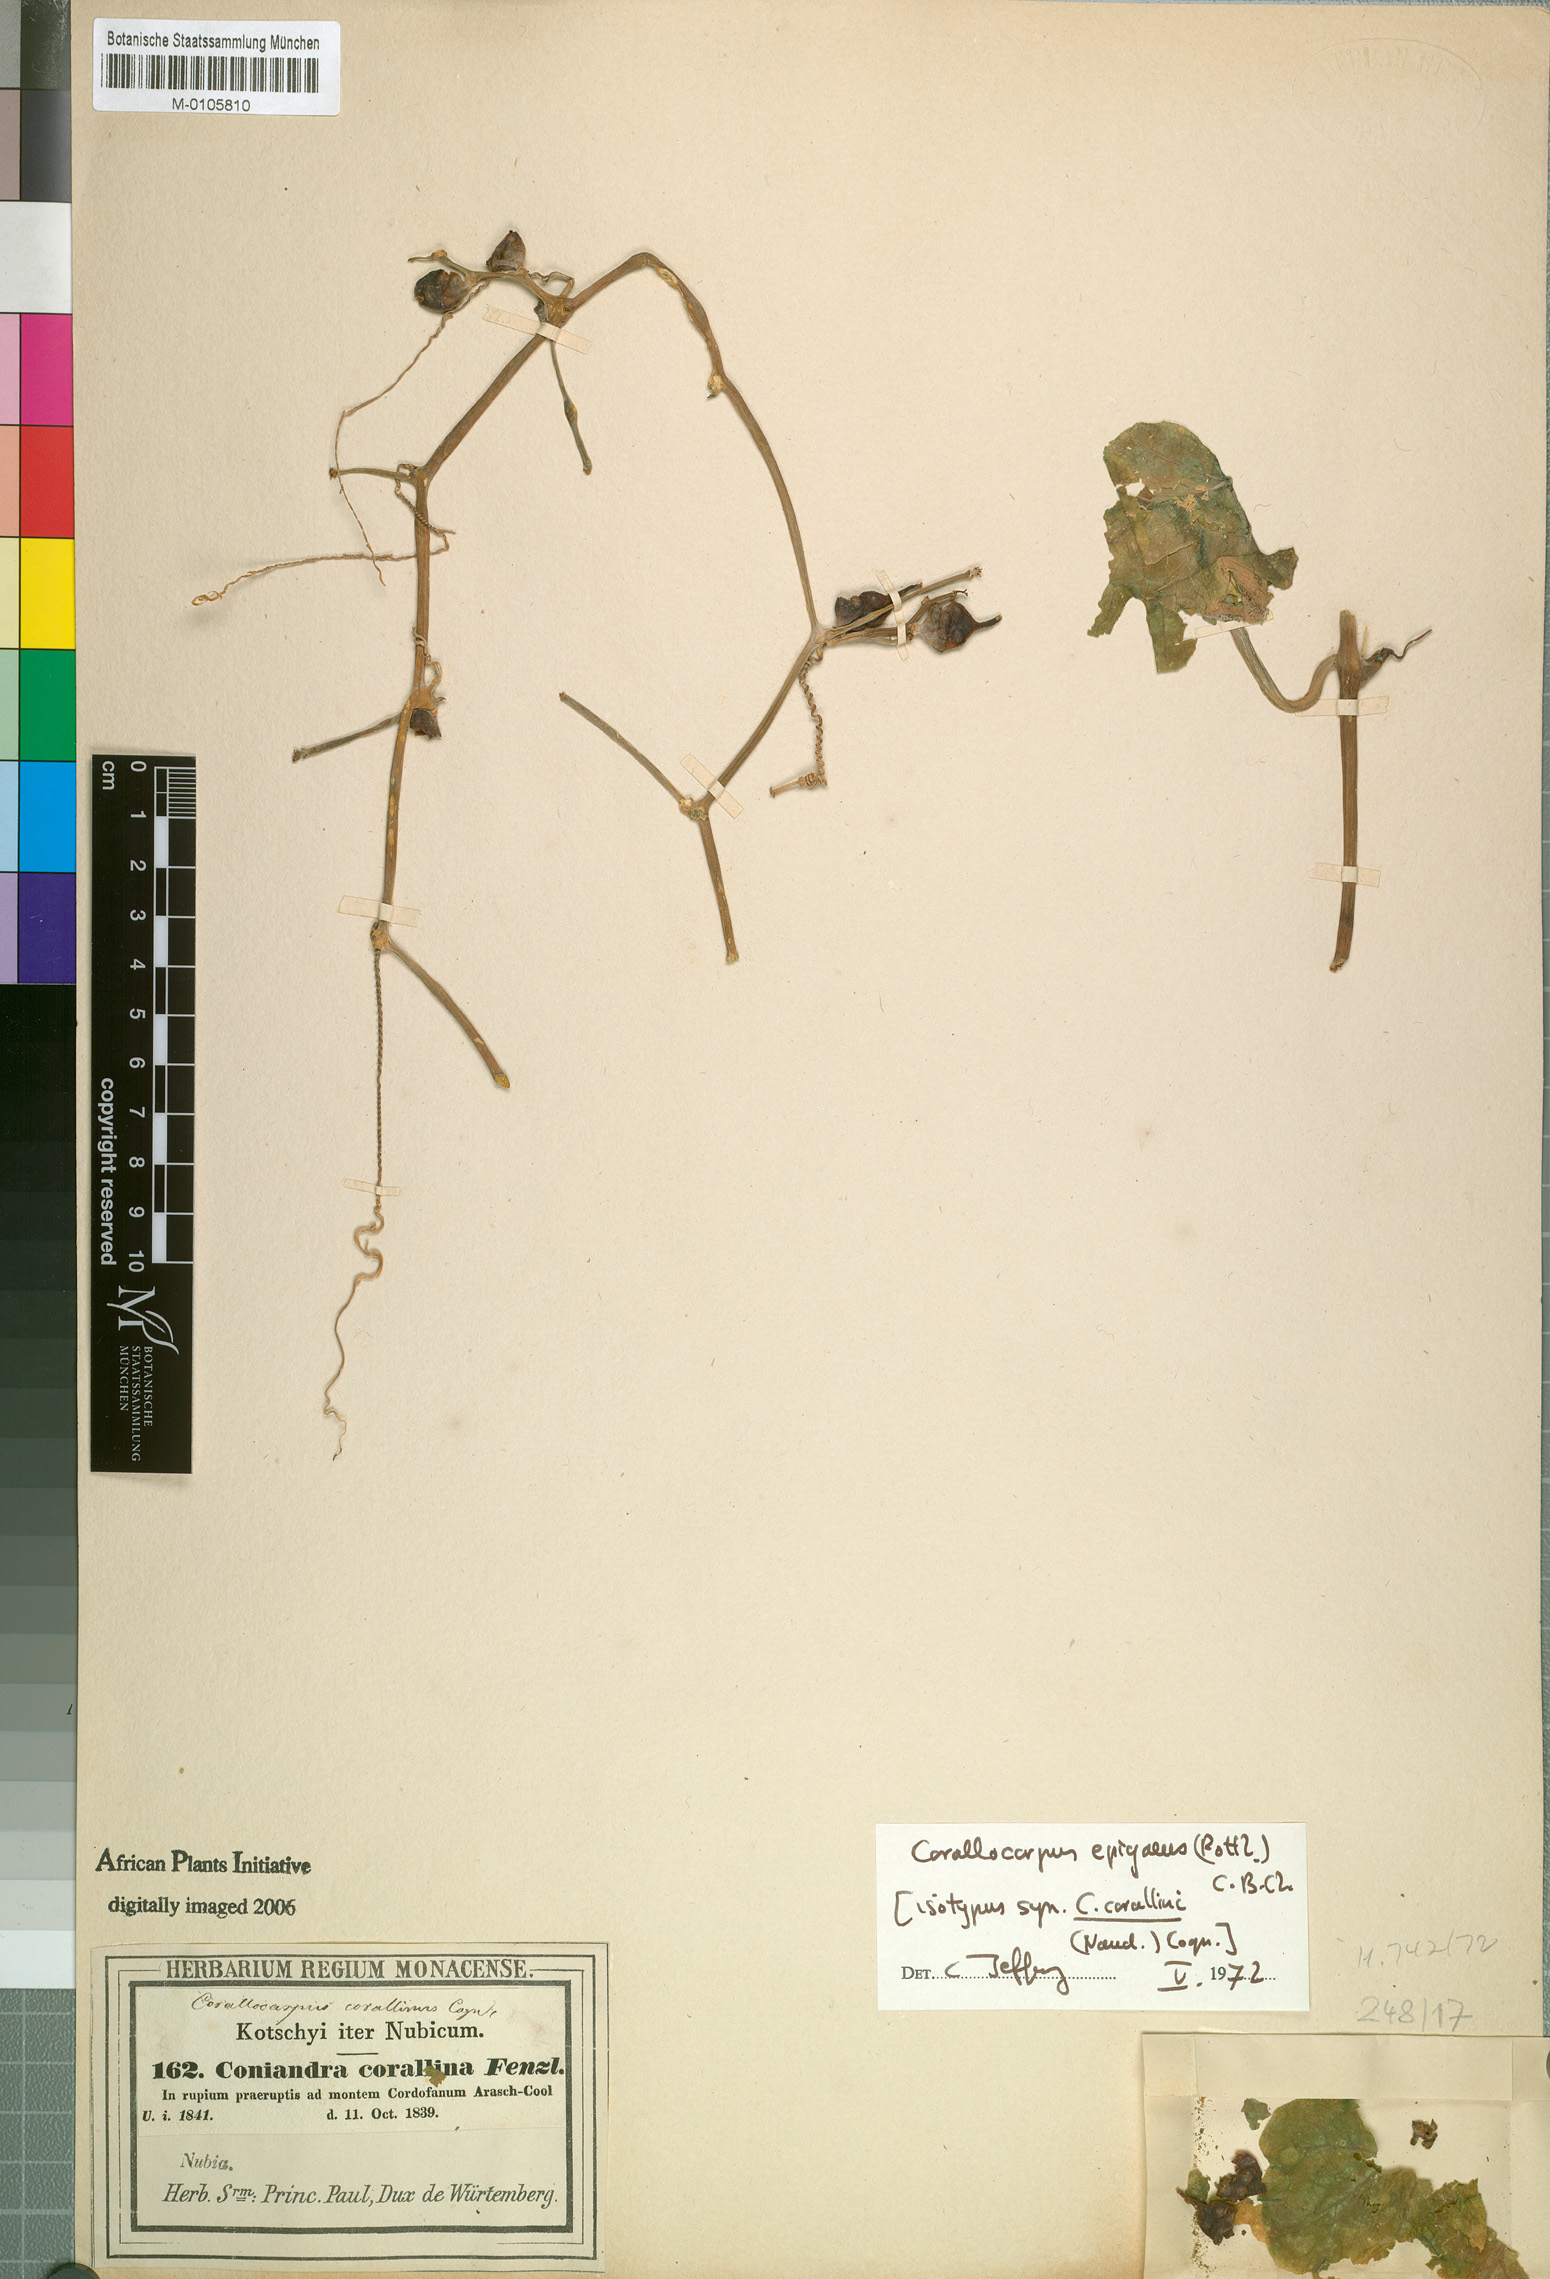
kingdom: Plantae
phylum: Tracheophyta
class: Magnoliopsida
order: Cucurbitales
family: Cucurbitaceae
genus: Corallocarpus
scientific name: Corallocarpus epigaeus
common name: Indian bryonia
